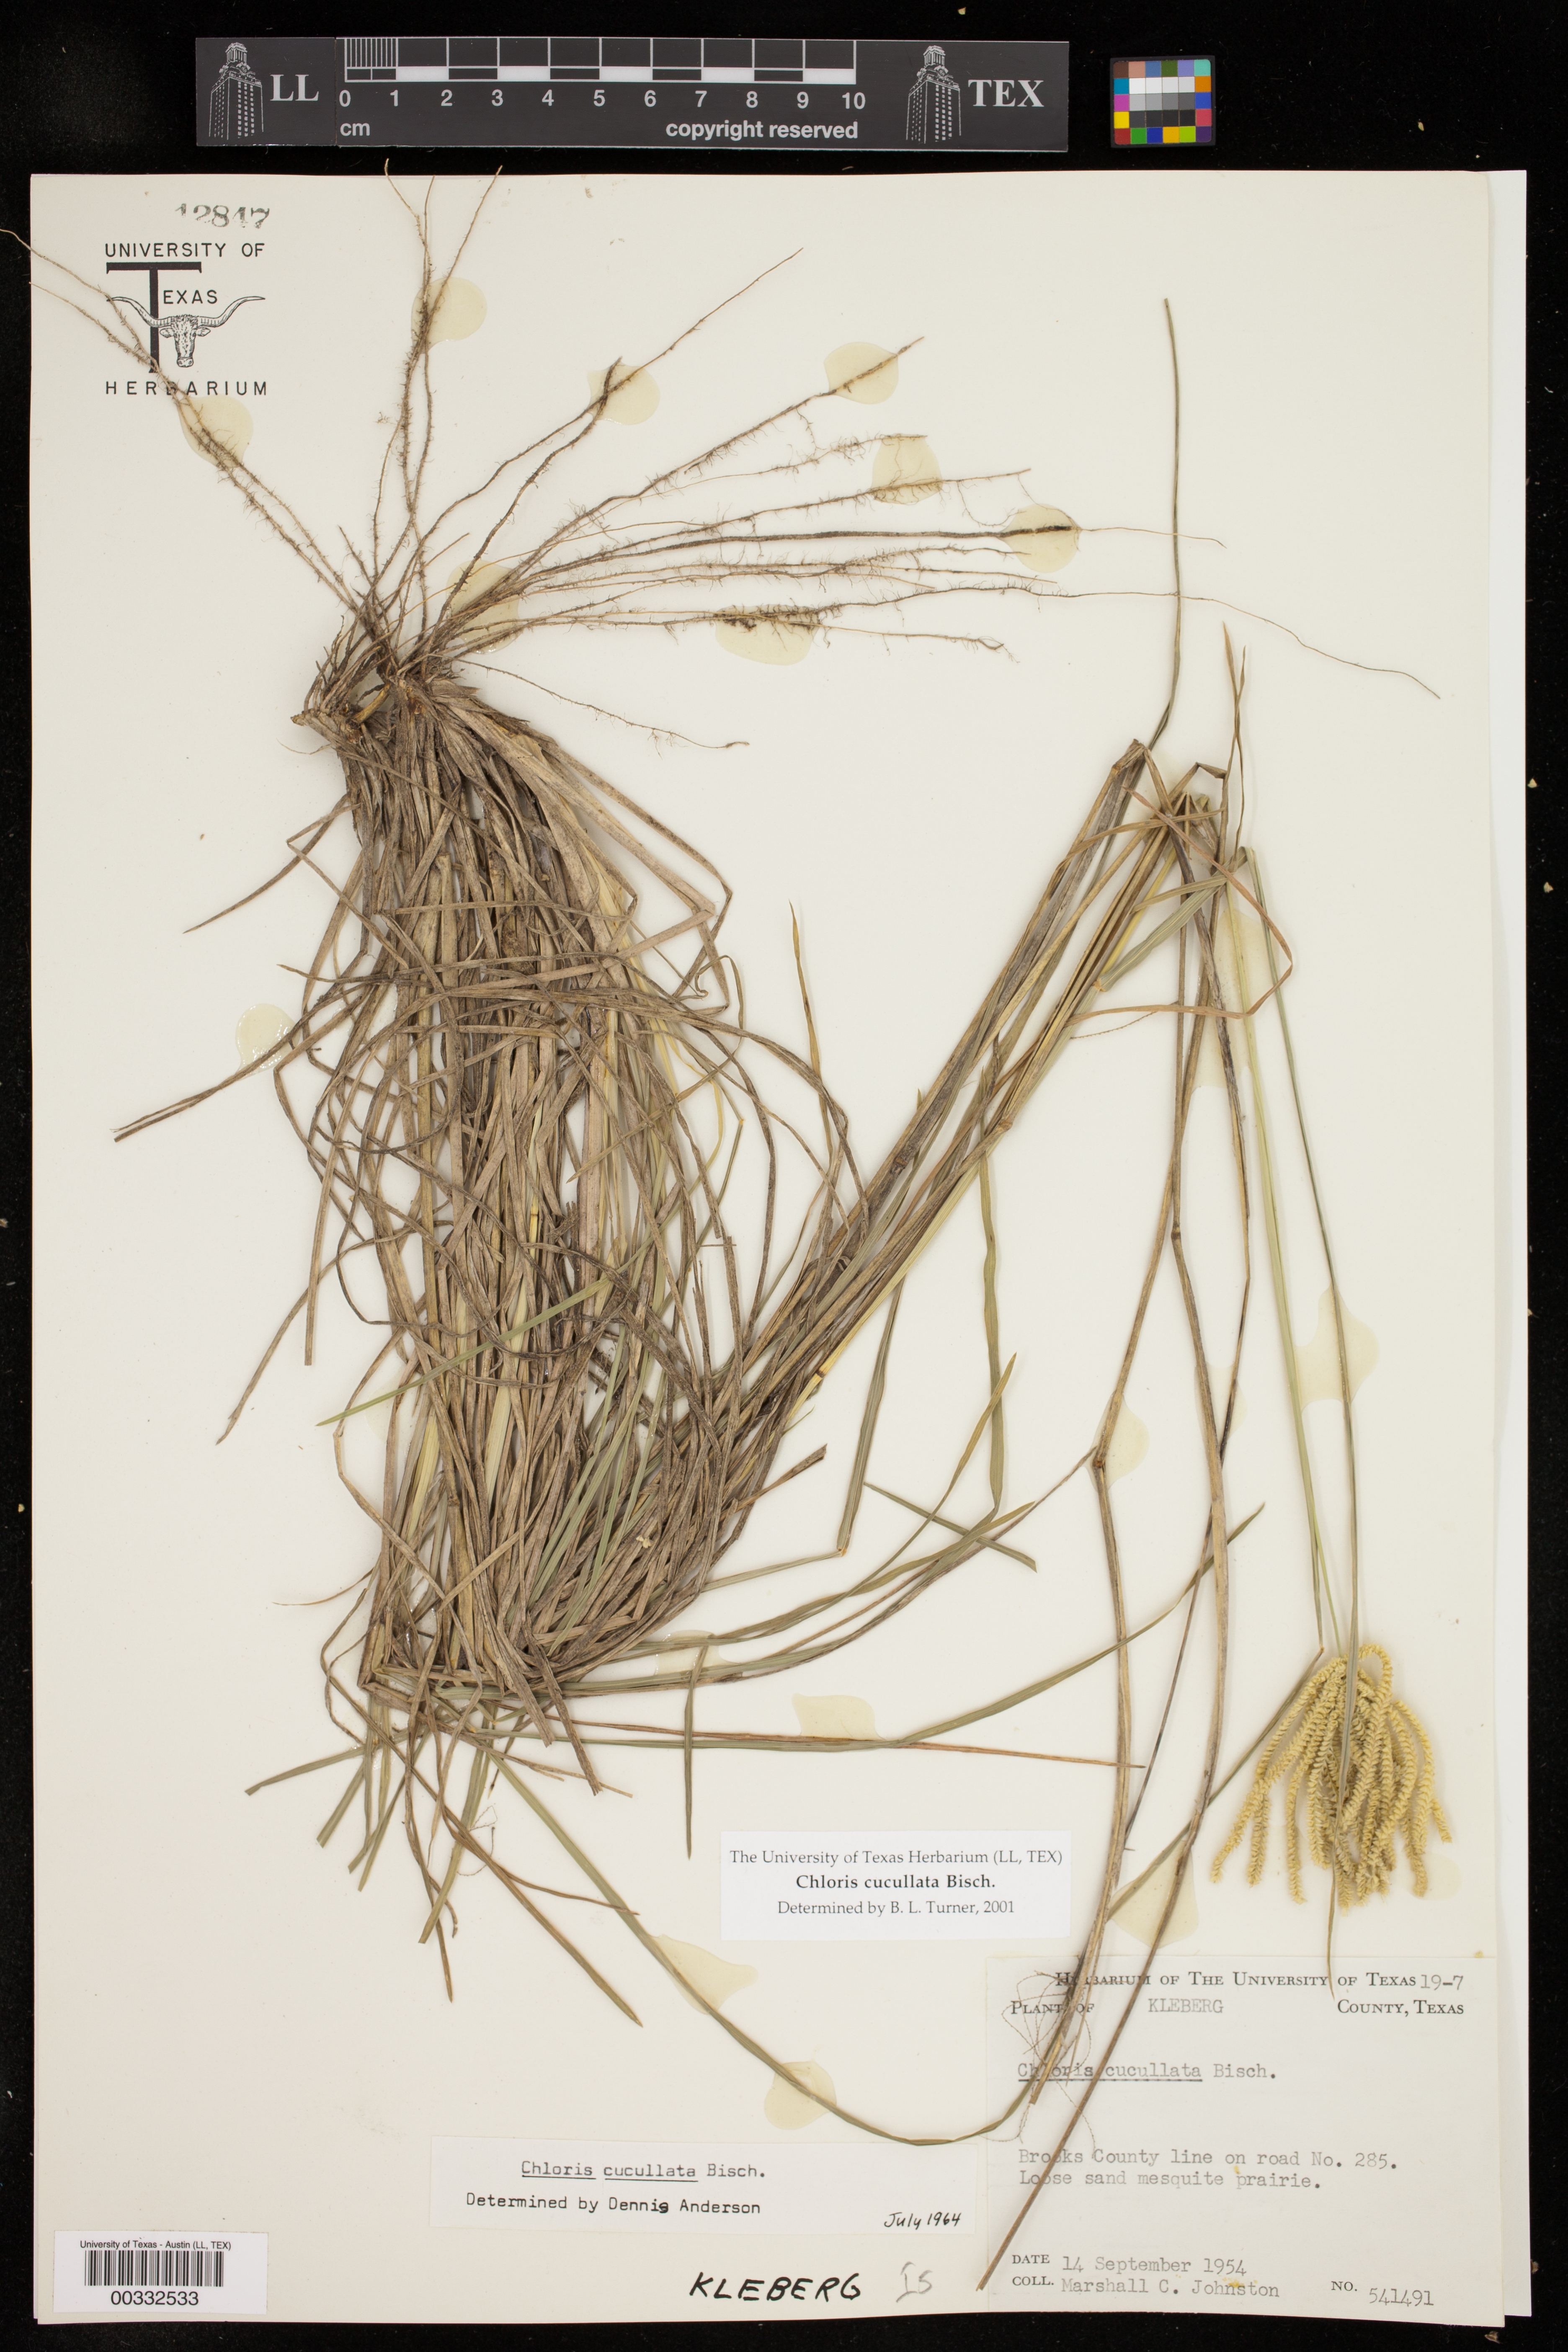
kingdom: Plantae
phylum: Tracheophyta
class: Liliopsida
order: Poales
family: Poaceae
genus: Chloris
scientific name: Chloris cucullata
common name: Hooded windmill grass
